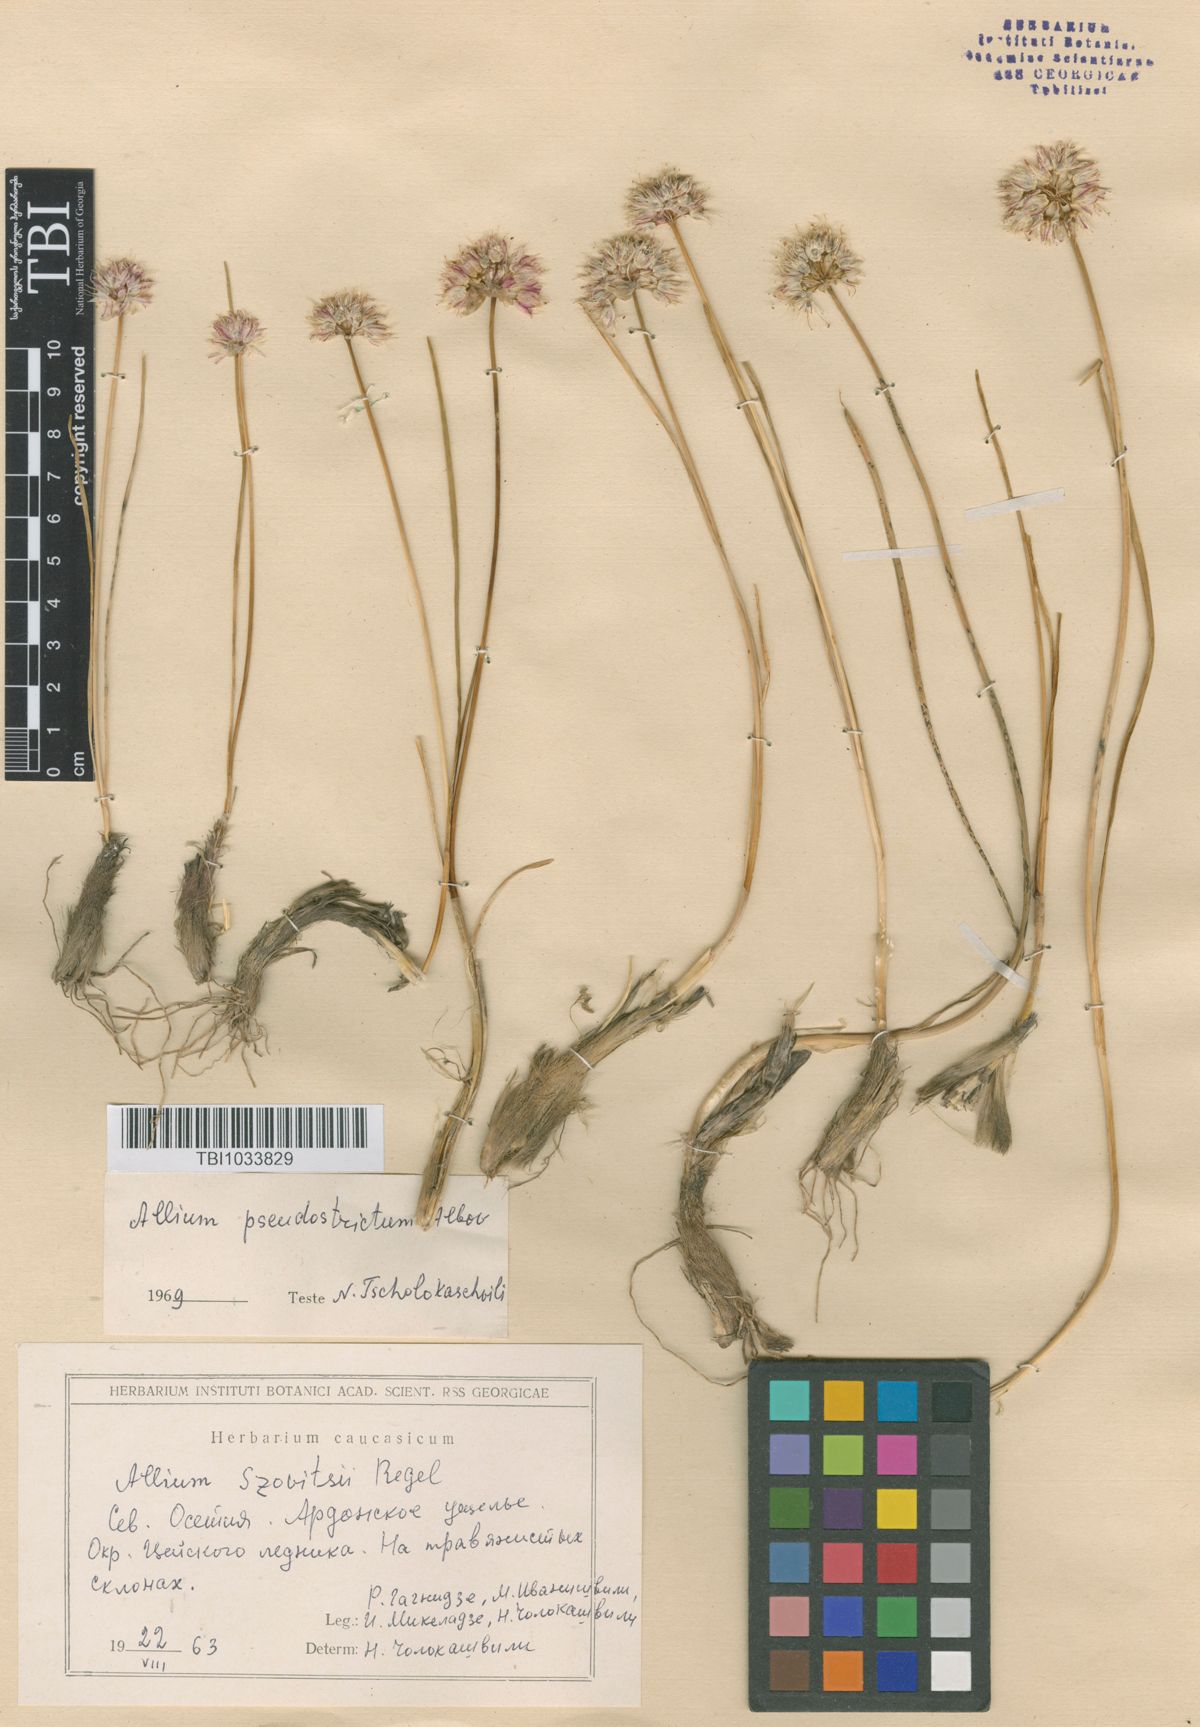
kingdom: Plantae
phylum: Tracheophyta
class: Liliopsida
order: Asparagales
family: Amaryllidaceae
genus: Allium
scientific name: Allium pseudostrictum
